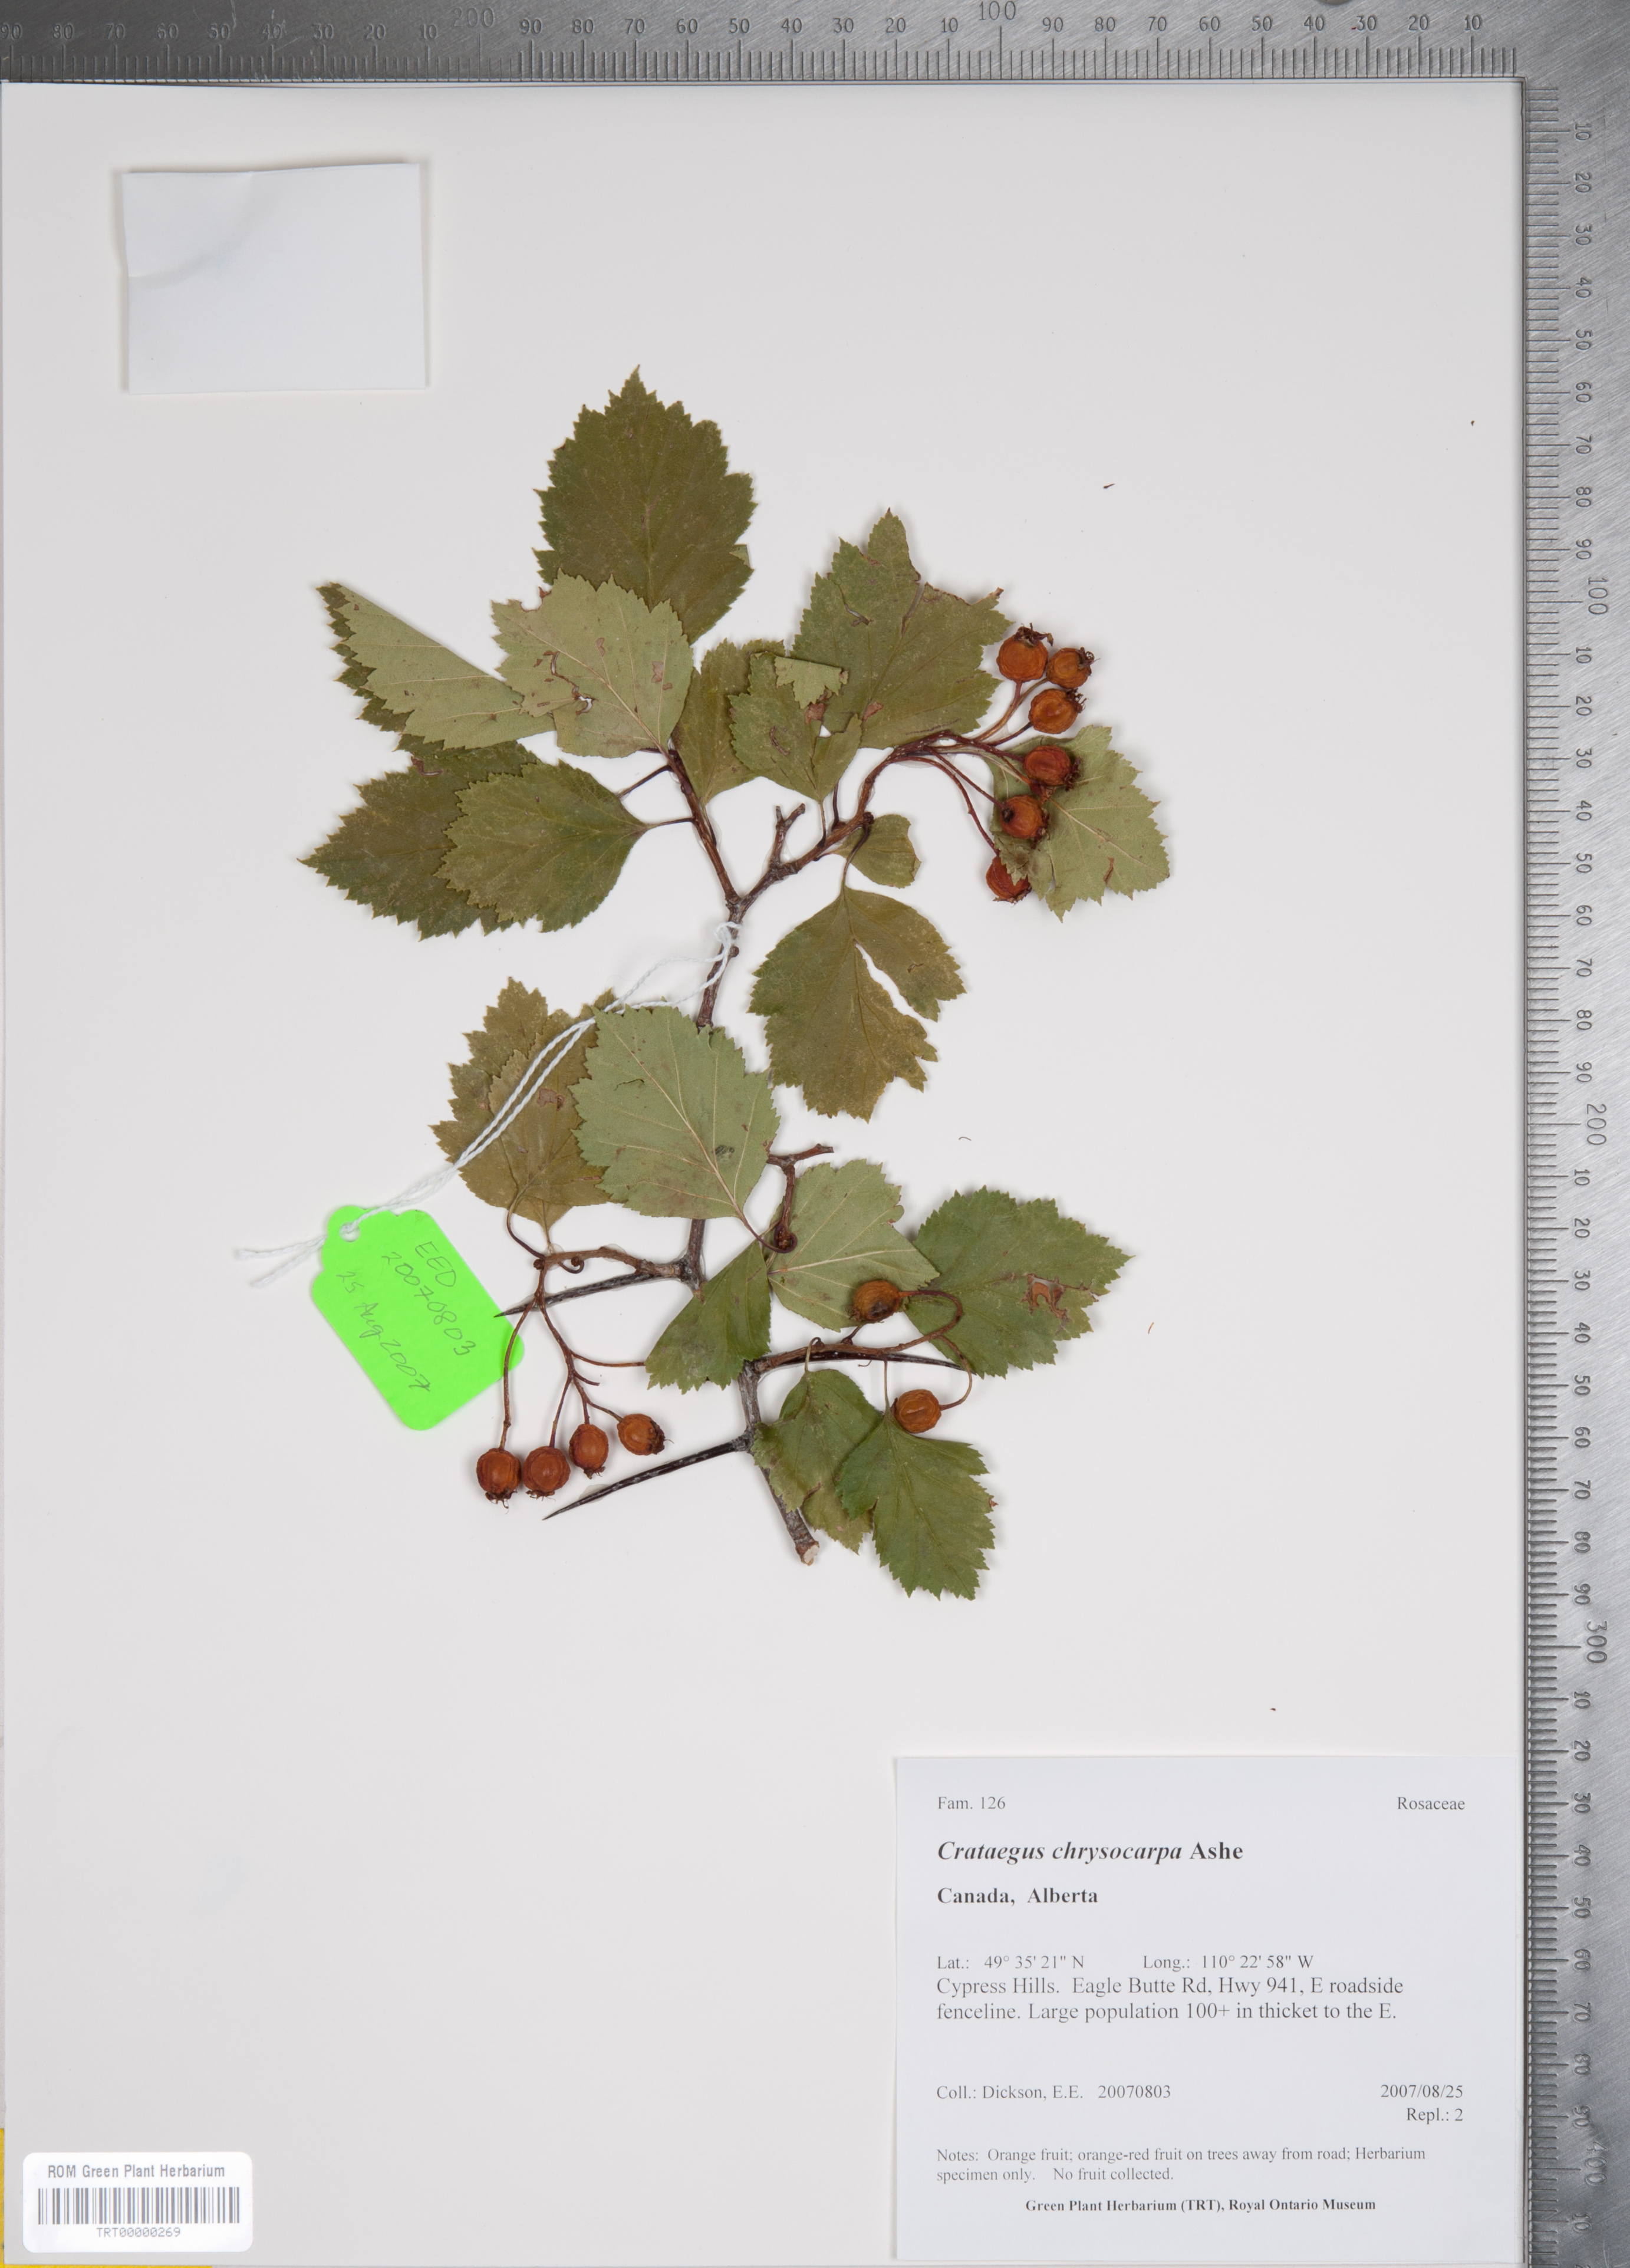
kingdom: Plantae
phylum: Tracheophyta
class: Magnoliopsida
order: Rosales
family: Rosaceae
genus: Crataegus
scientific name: Crataegus chrysocarpa
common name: Fire-berry hawthorn
